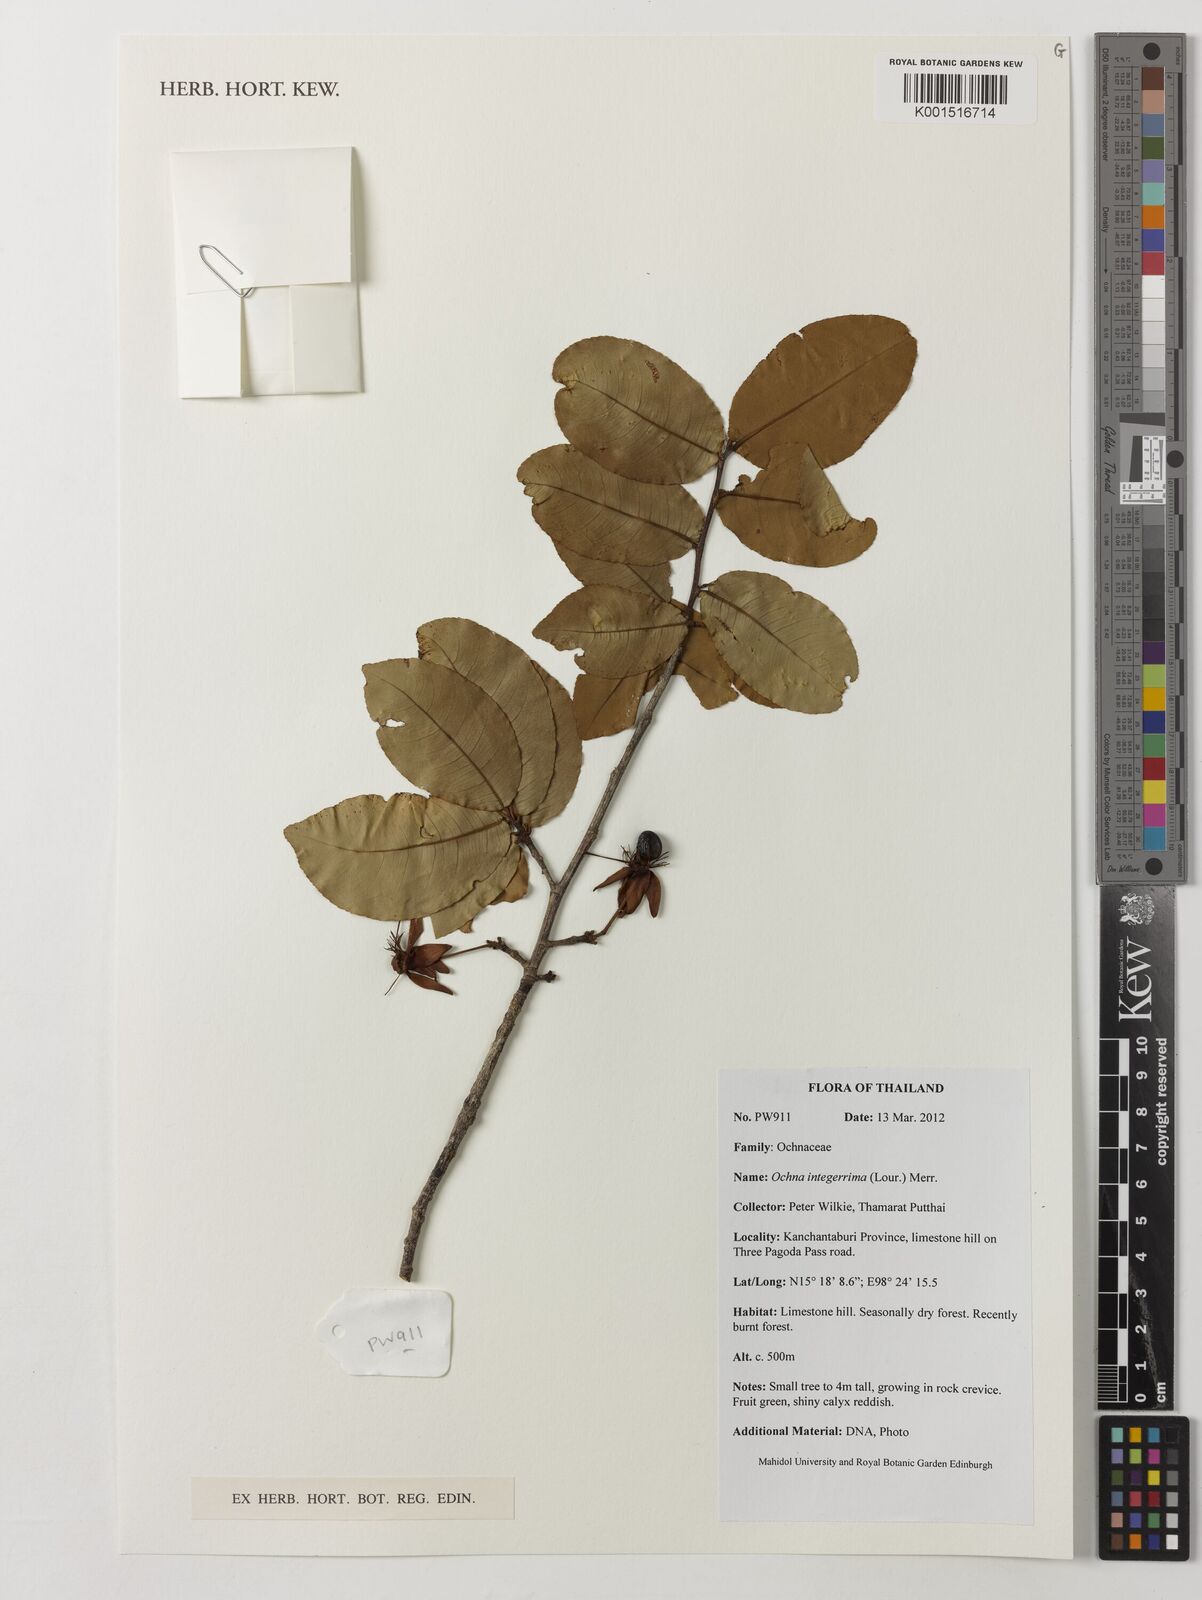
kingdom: Plantae
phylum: Tracheophyta
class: Magnoliopsida
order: Malpighiales
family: Ochnaceae
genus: Ochna
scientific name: Ochna integerrima
